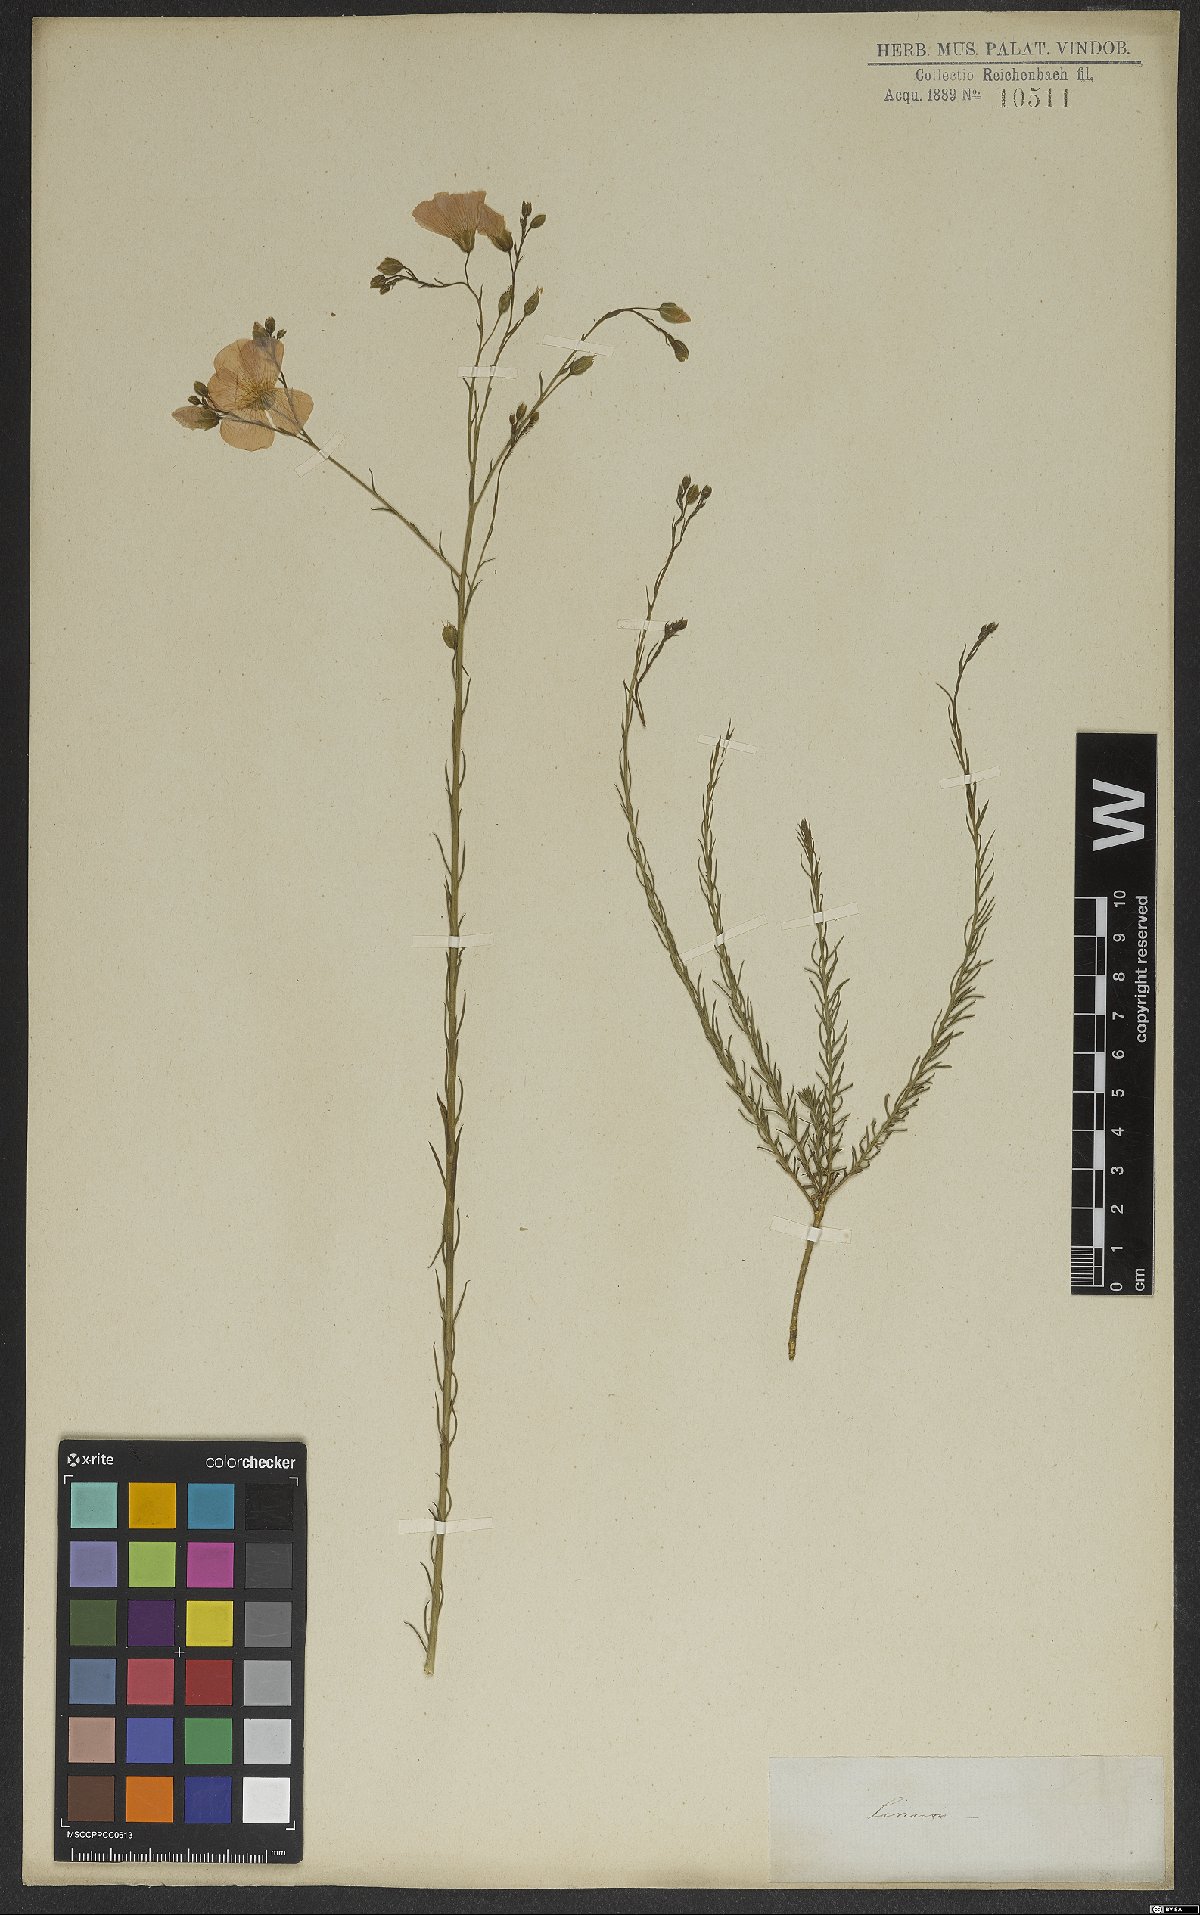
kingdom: Plantae
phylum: Tracheophyta
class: Magnoliopsida
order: Malpighiales
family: Linaceae
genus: Linum
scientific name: Linum
